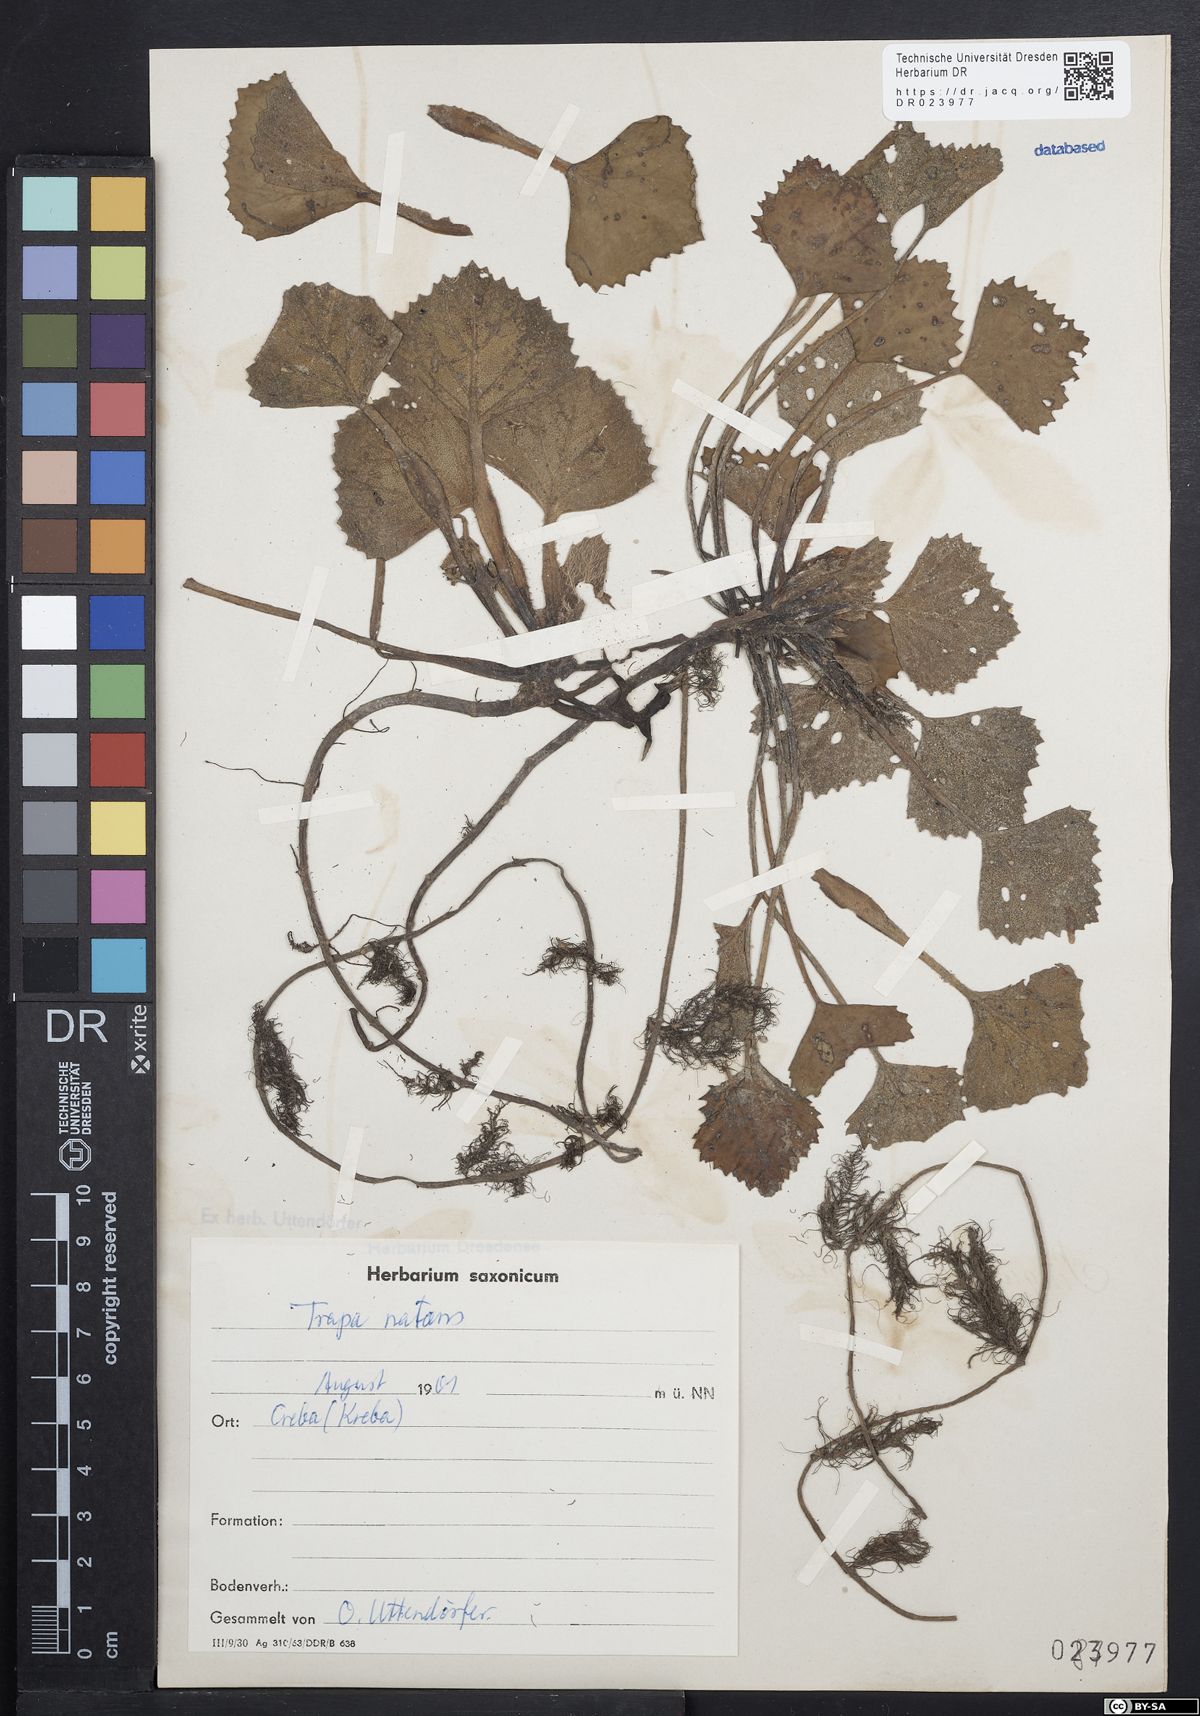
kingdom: Plantae
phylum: Tracheophyta
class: Magnoliopsida
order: Myrtales
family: Lythraceae
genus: Trapa
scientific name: Trapa natans
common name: Water chestnut
